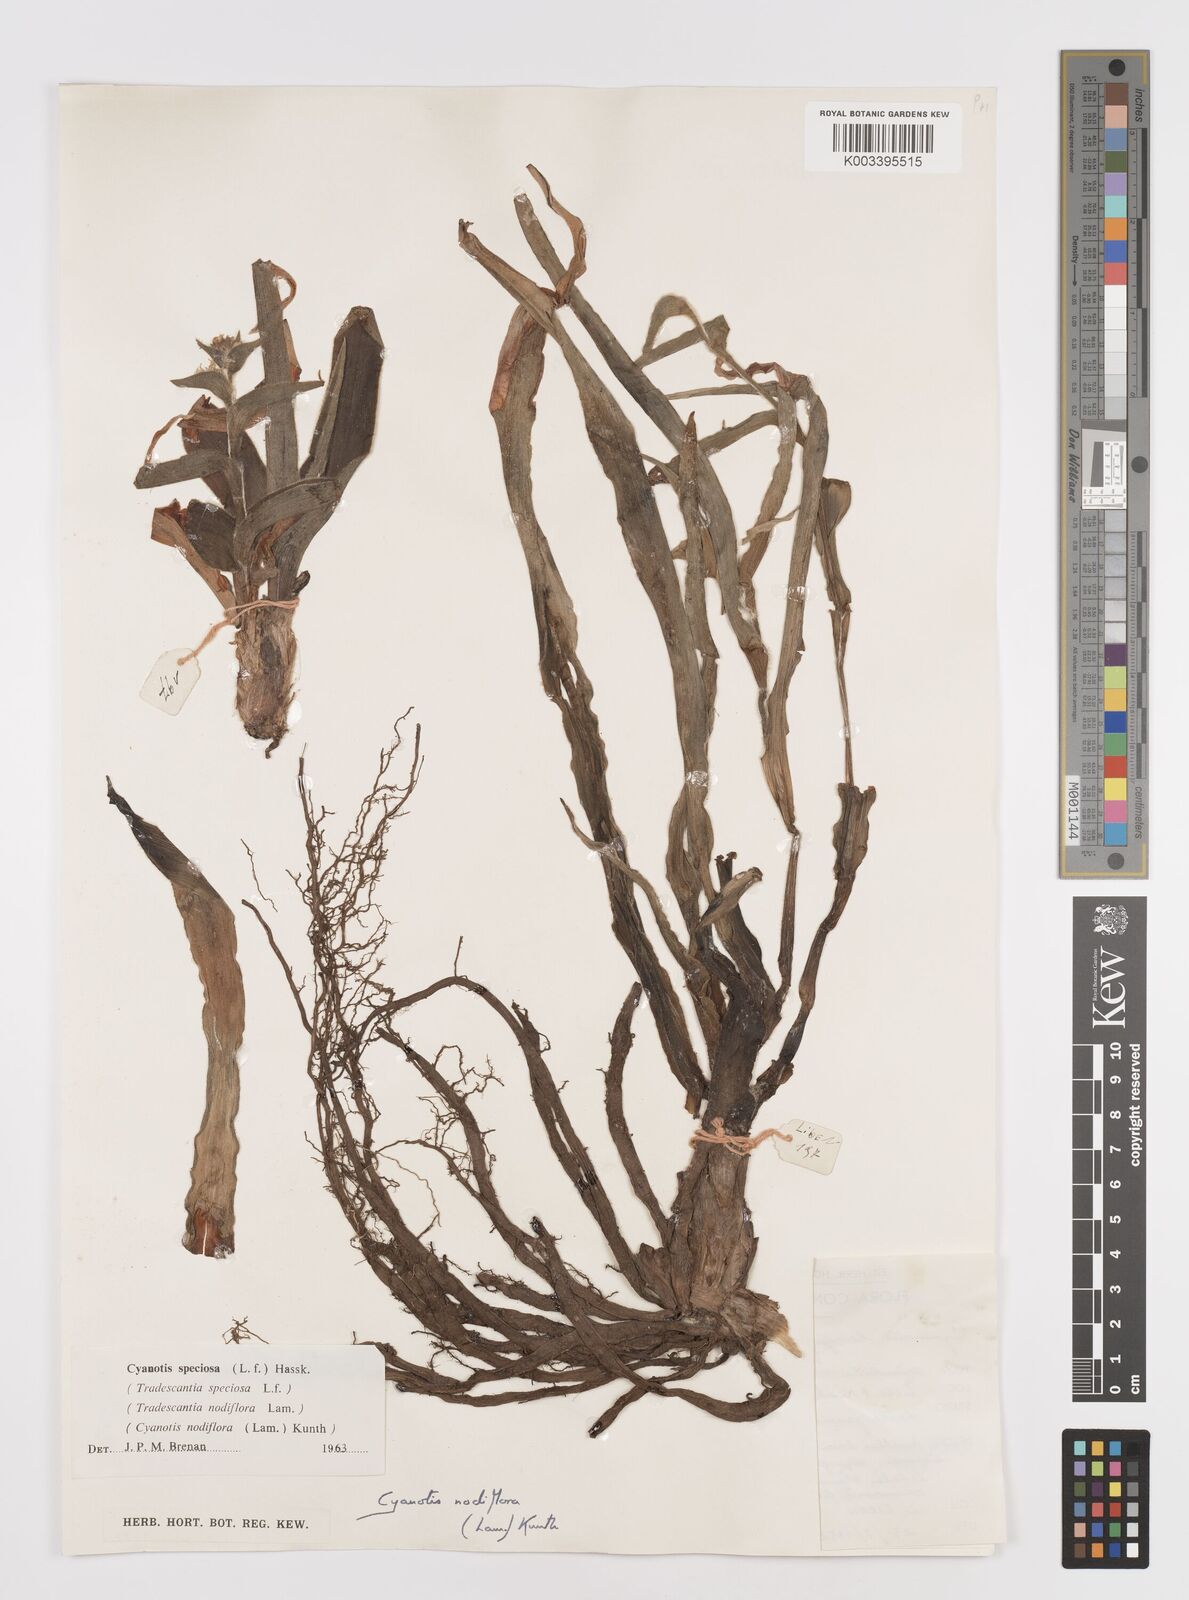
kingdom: Plantae
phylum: Tracheophyta
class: Liliopsida
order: Commelinales
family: Commelinaceae
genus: Cyanotis
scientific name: Cyanotis speciosa
